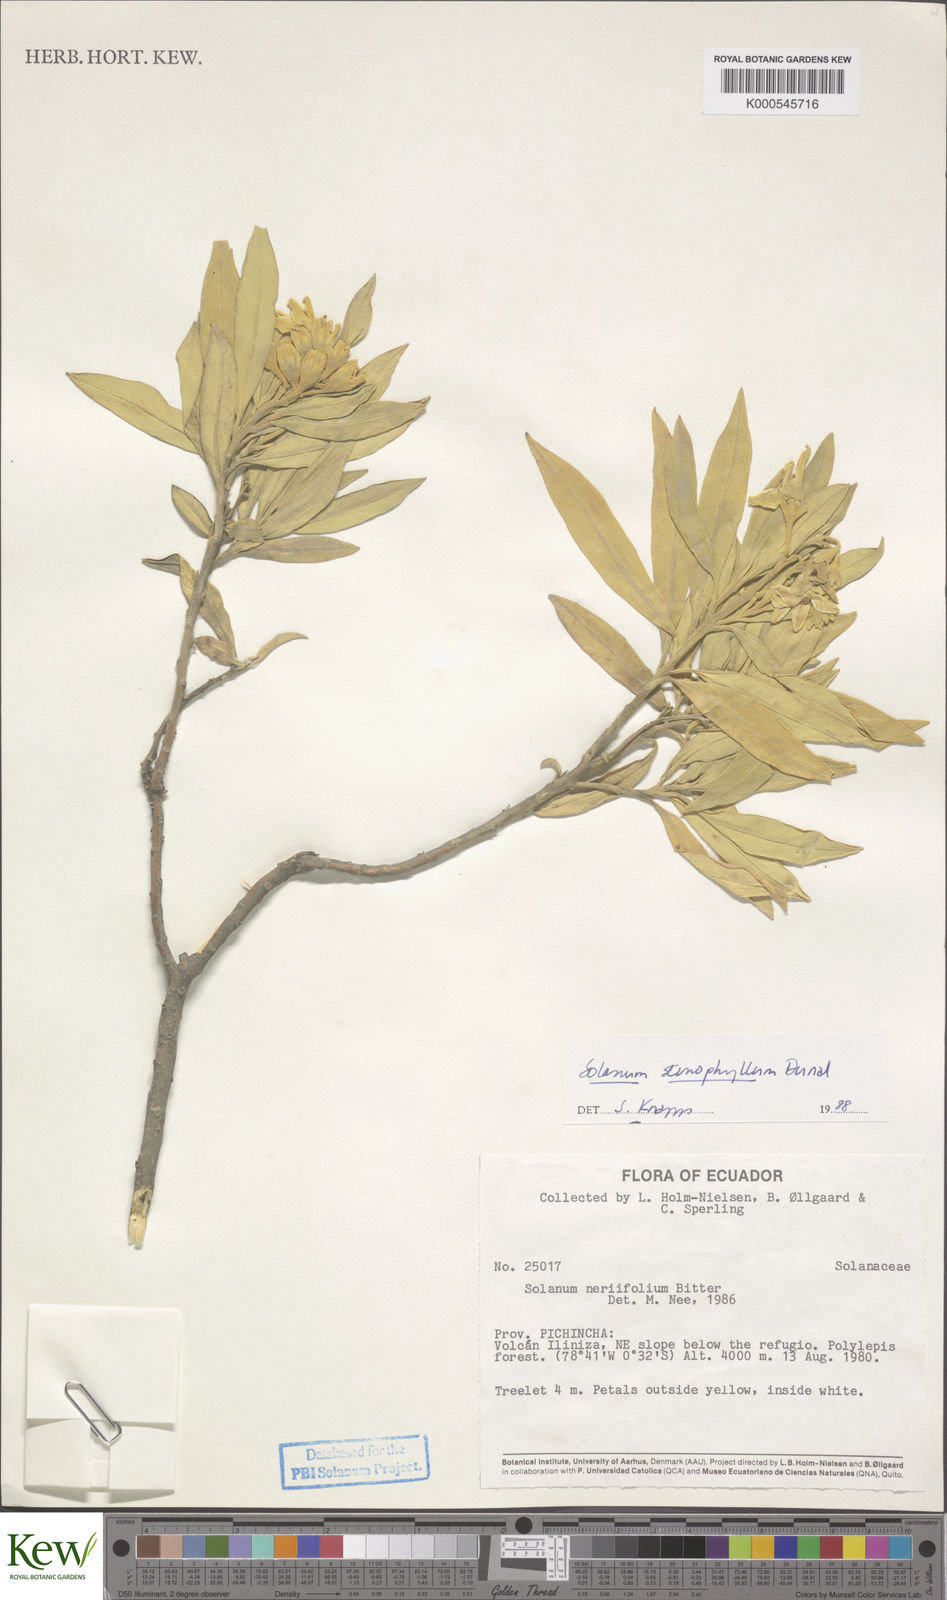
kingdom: Plantae
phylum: Tracheophyta
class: Magnoliopsida
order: Solanales
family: Solanaceae
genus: Solanum
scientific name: Solanum stenophyllum
